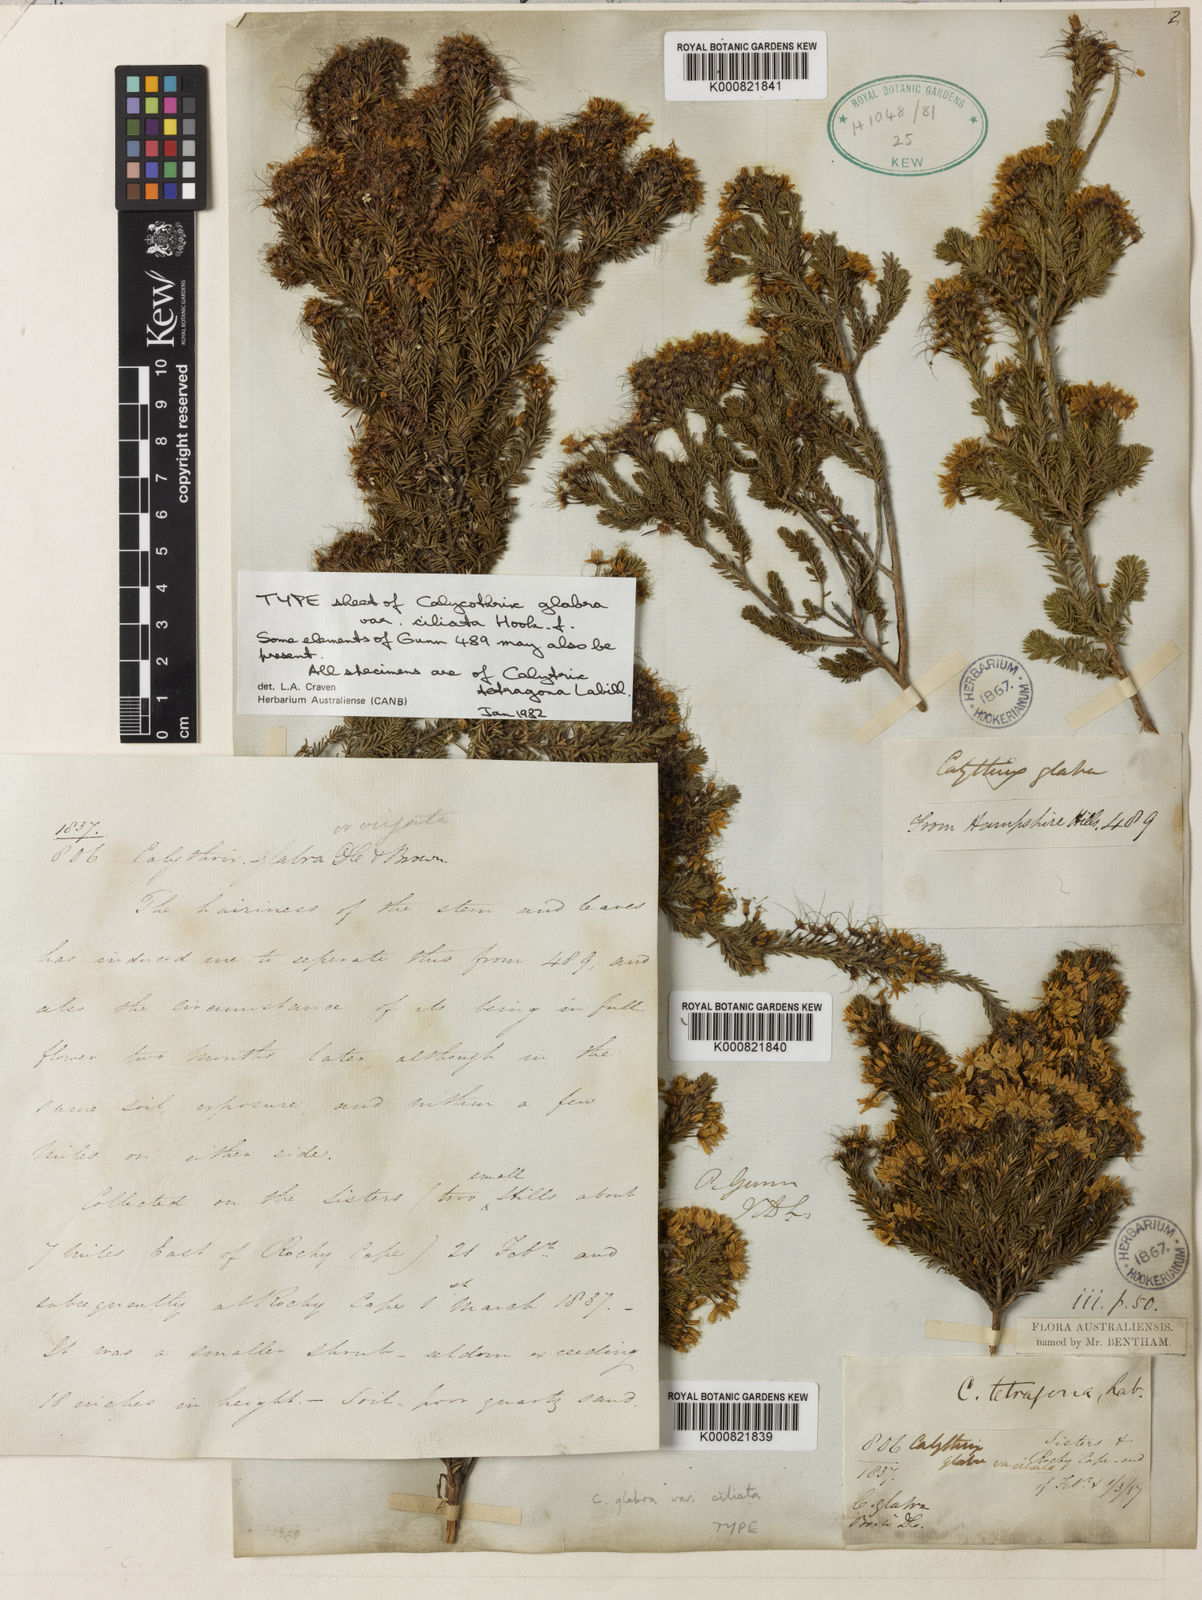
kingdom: Plantae
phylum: Tracheophyta
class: Magnoliopsida
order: Myrtales
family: Myrtaceae
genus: Calytrix
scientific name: Calytrix tetragona
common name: Common fringe myrtle
